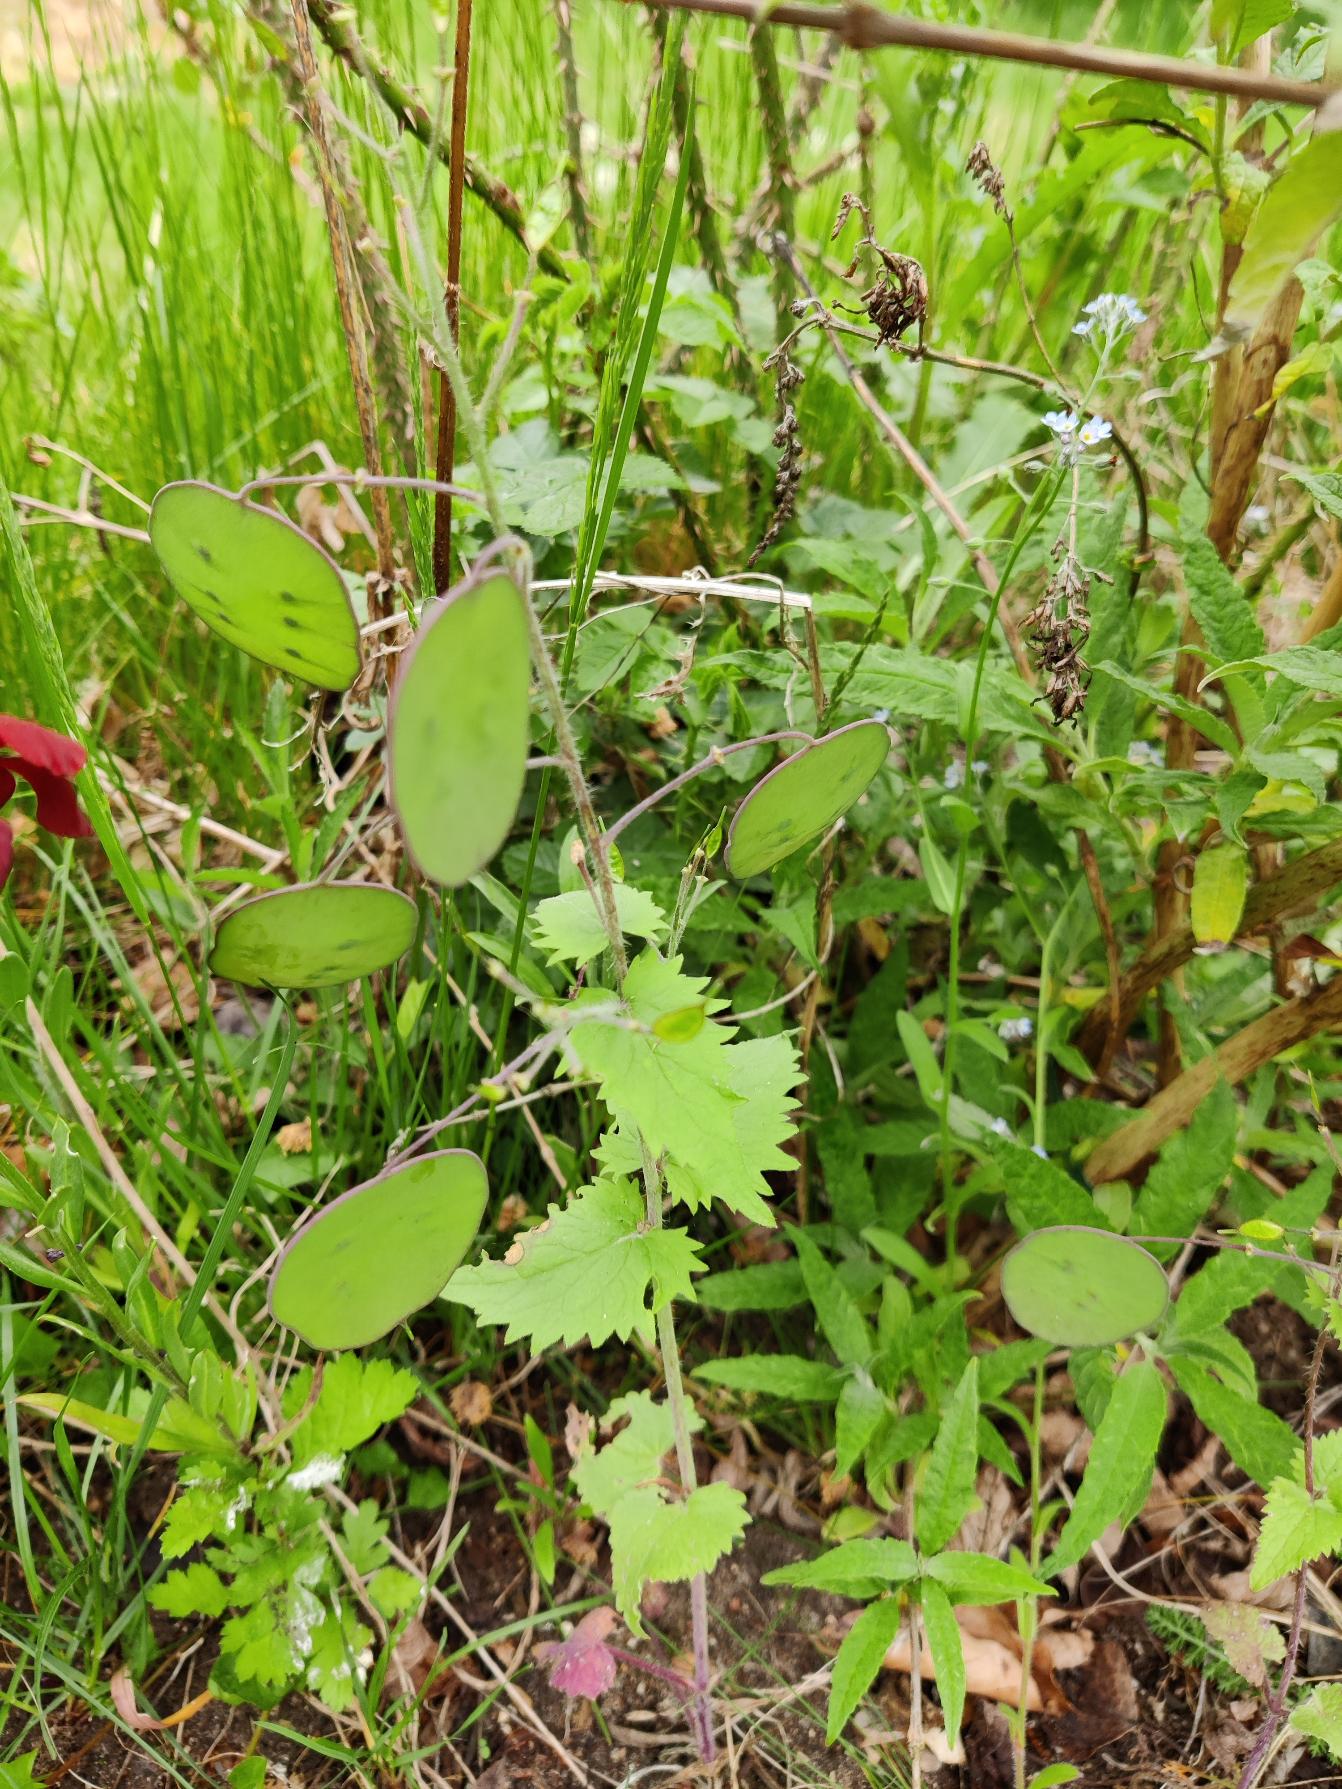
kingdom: Plantae
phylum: Tracheophyta
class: Magnoliopsida
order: Brassicales
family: Brassicaceae
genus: Lunaria
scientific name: Lunaria annua
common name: Judaspenge
